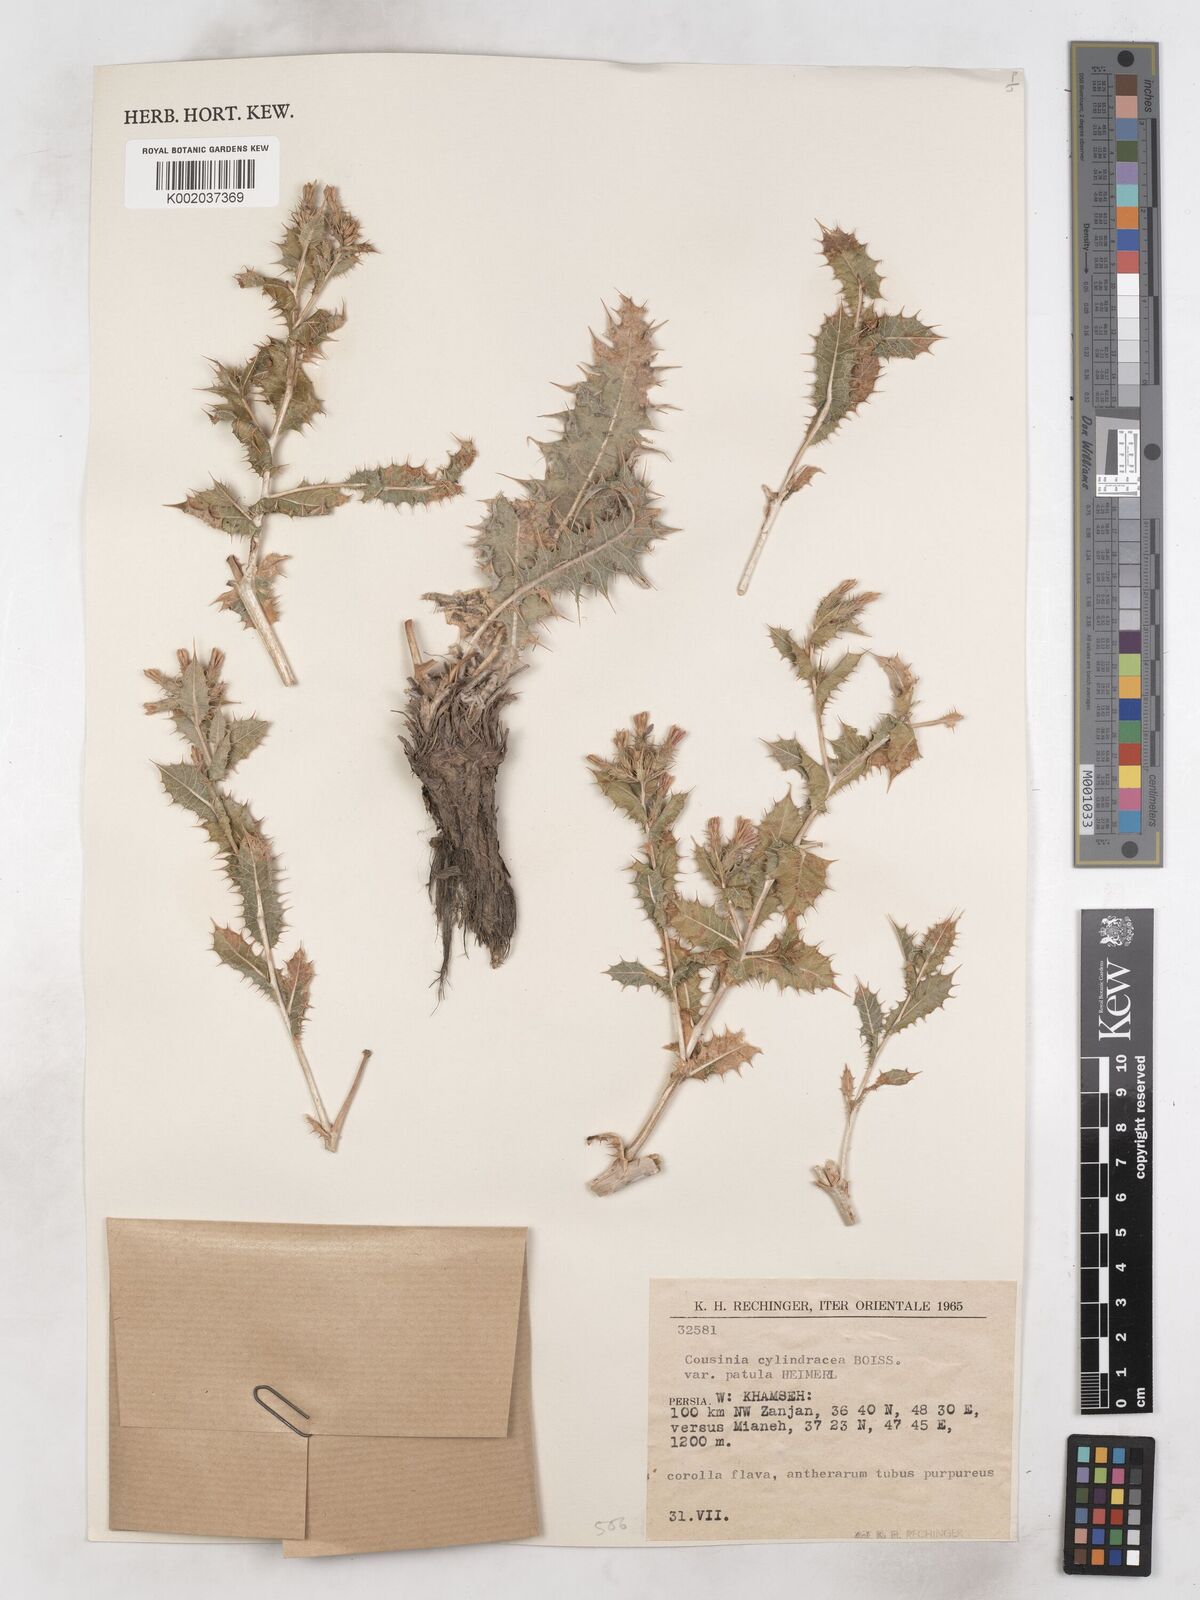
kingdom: Plantae
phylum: Tracheophyta
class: Magnoliopsida
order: Asterales
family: Asteraceae
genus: Cousinia
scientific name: Cousinia cylindracea
